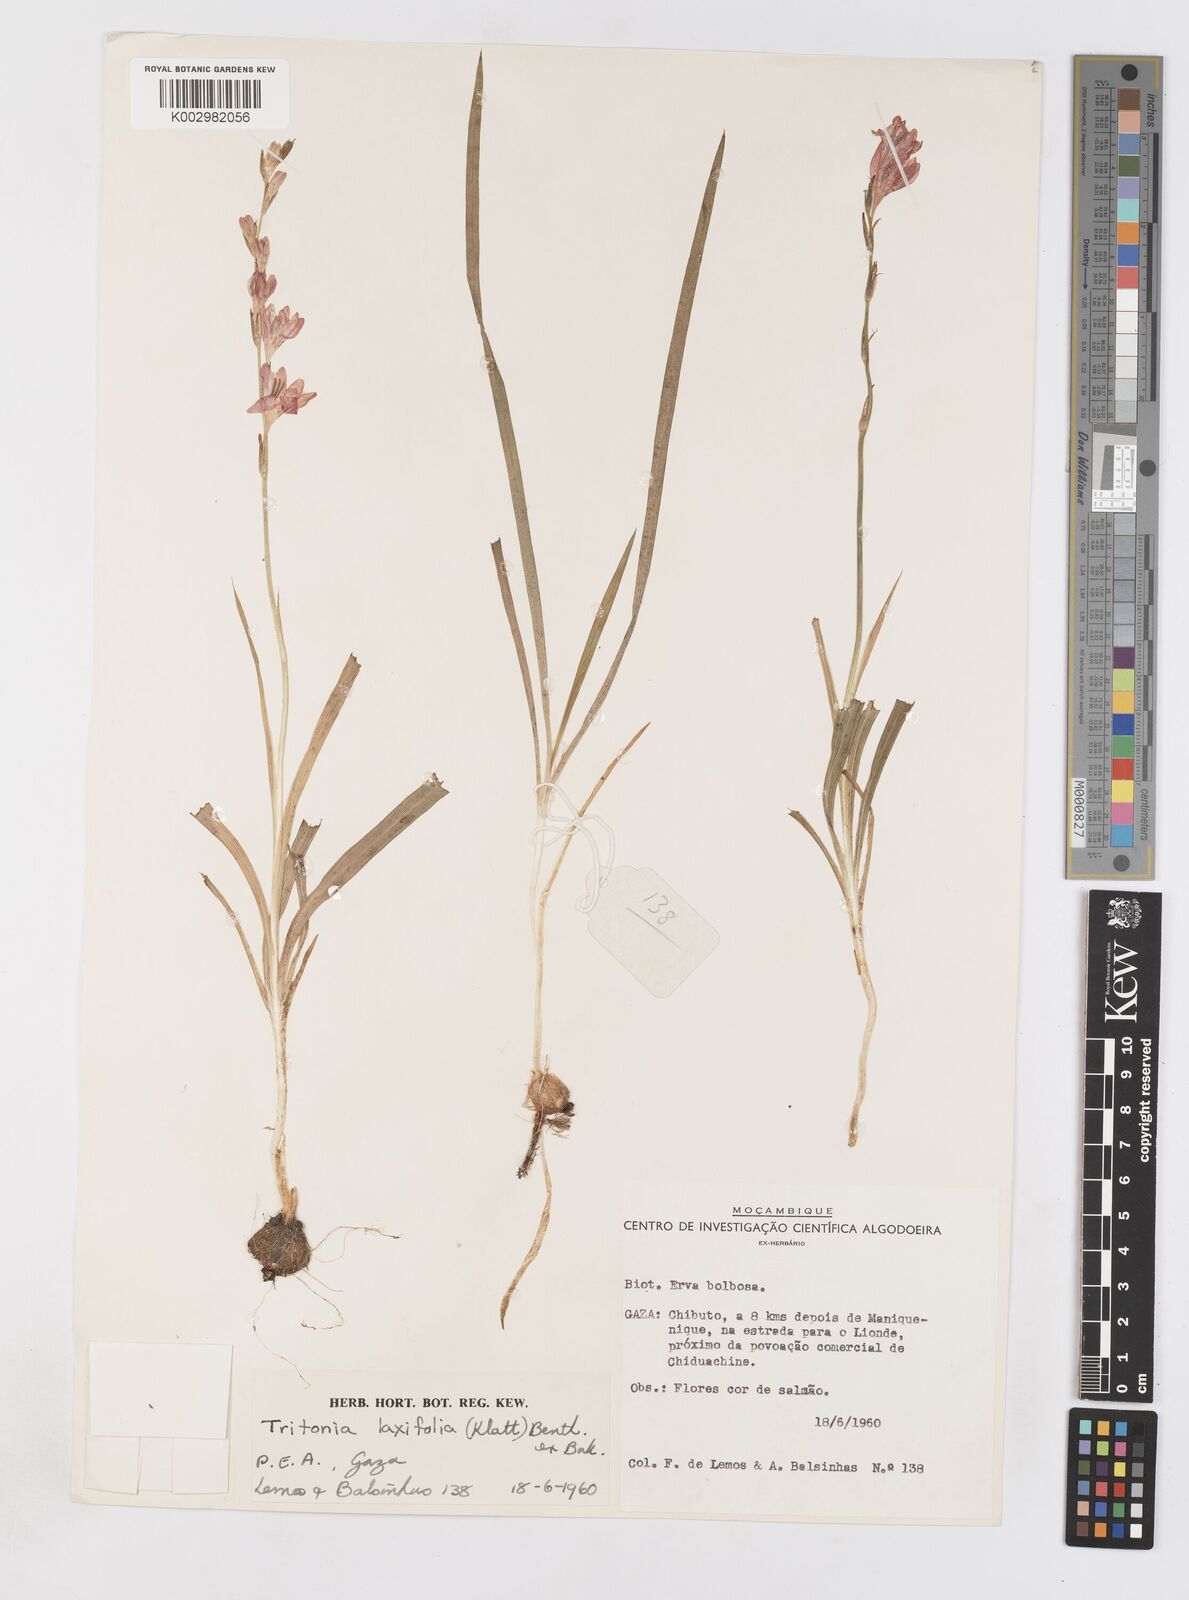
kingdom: Plantae
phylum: Tracheophyta
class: Liliopsida
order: Asparagales
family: Iridaceae
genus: Tritonia
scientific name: Tritonia laxifolia
